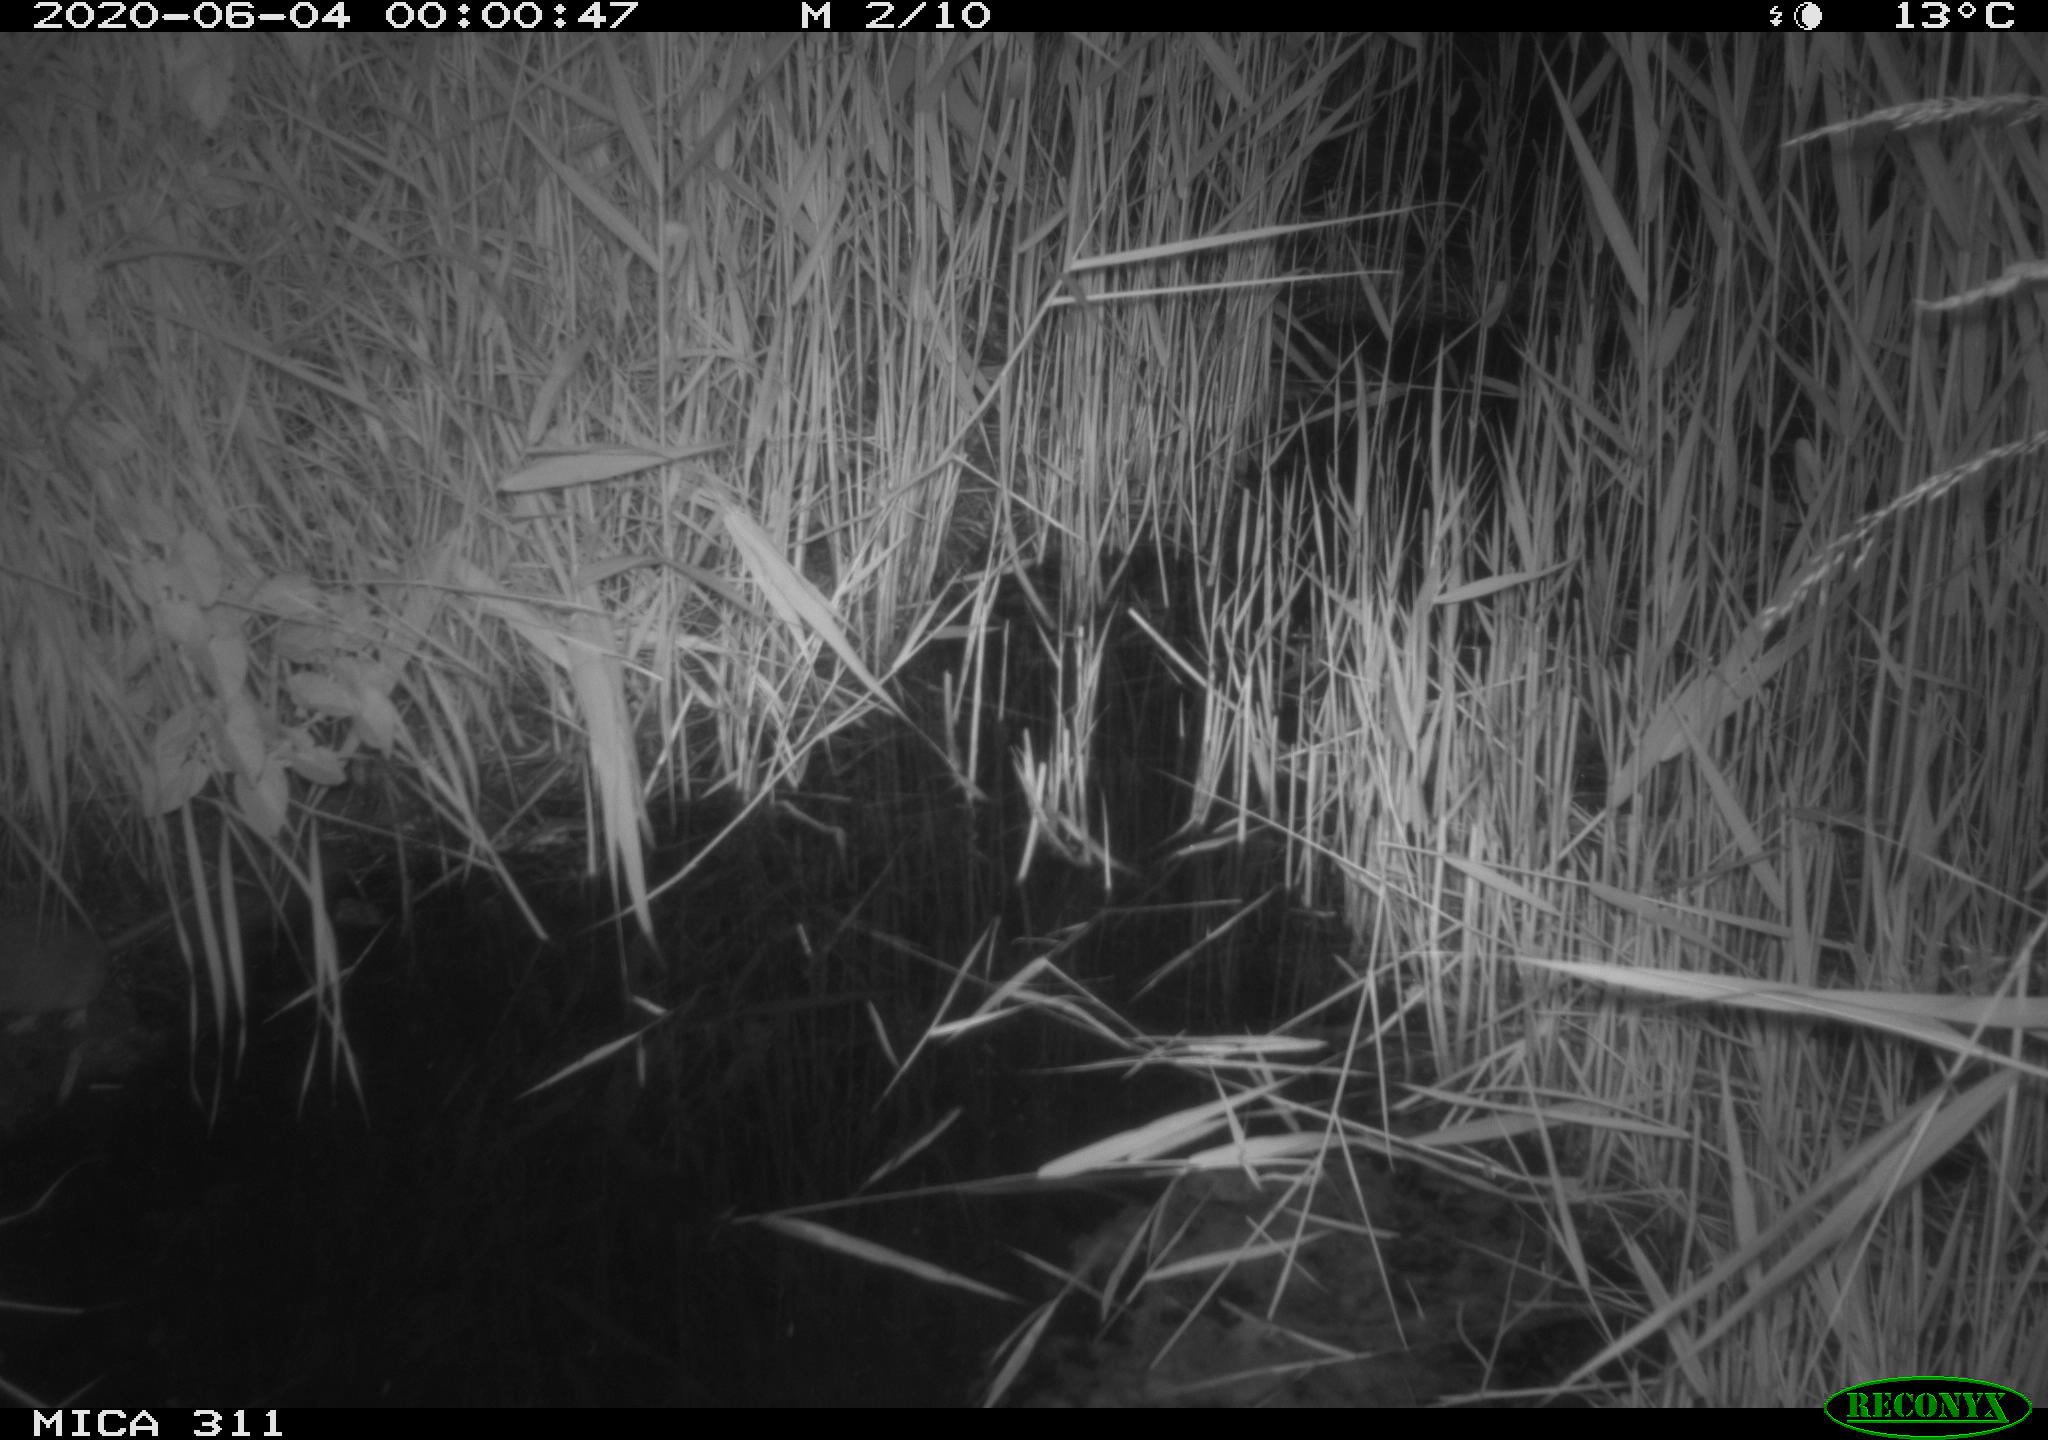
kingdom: Animalia
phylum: Chordata
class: Mammalia
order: Rodentia
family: Muridae
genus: Rattus
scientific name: Rattus norvegicus
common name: Brown rat
